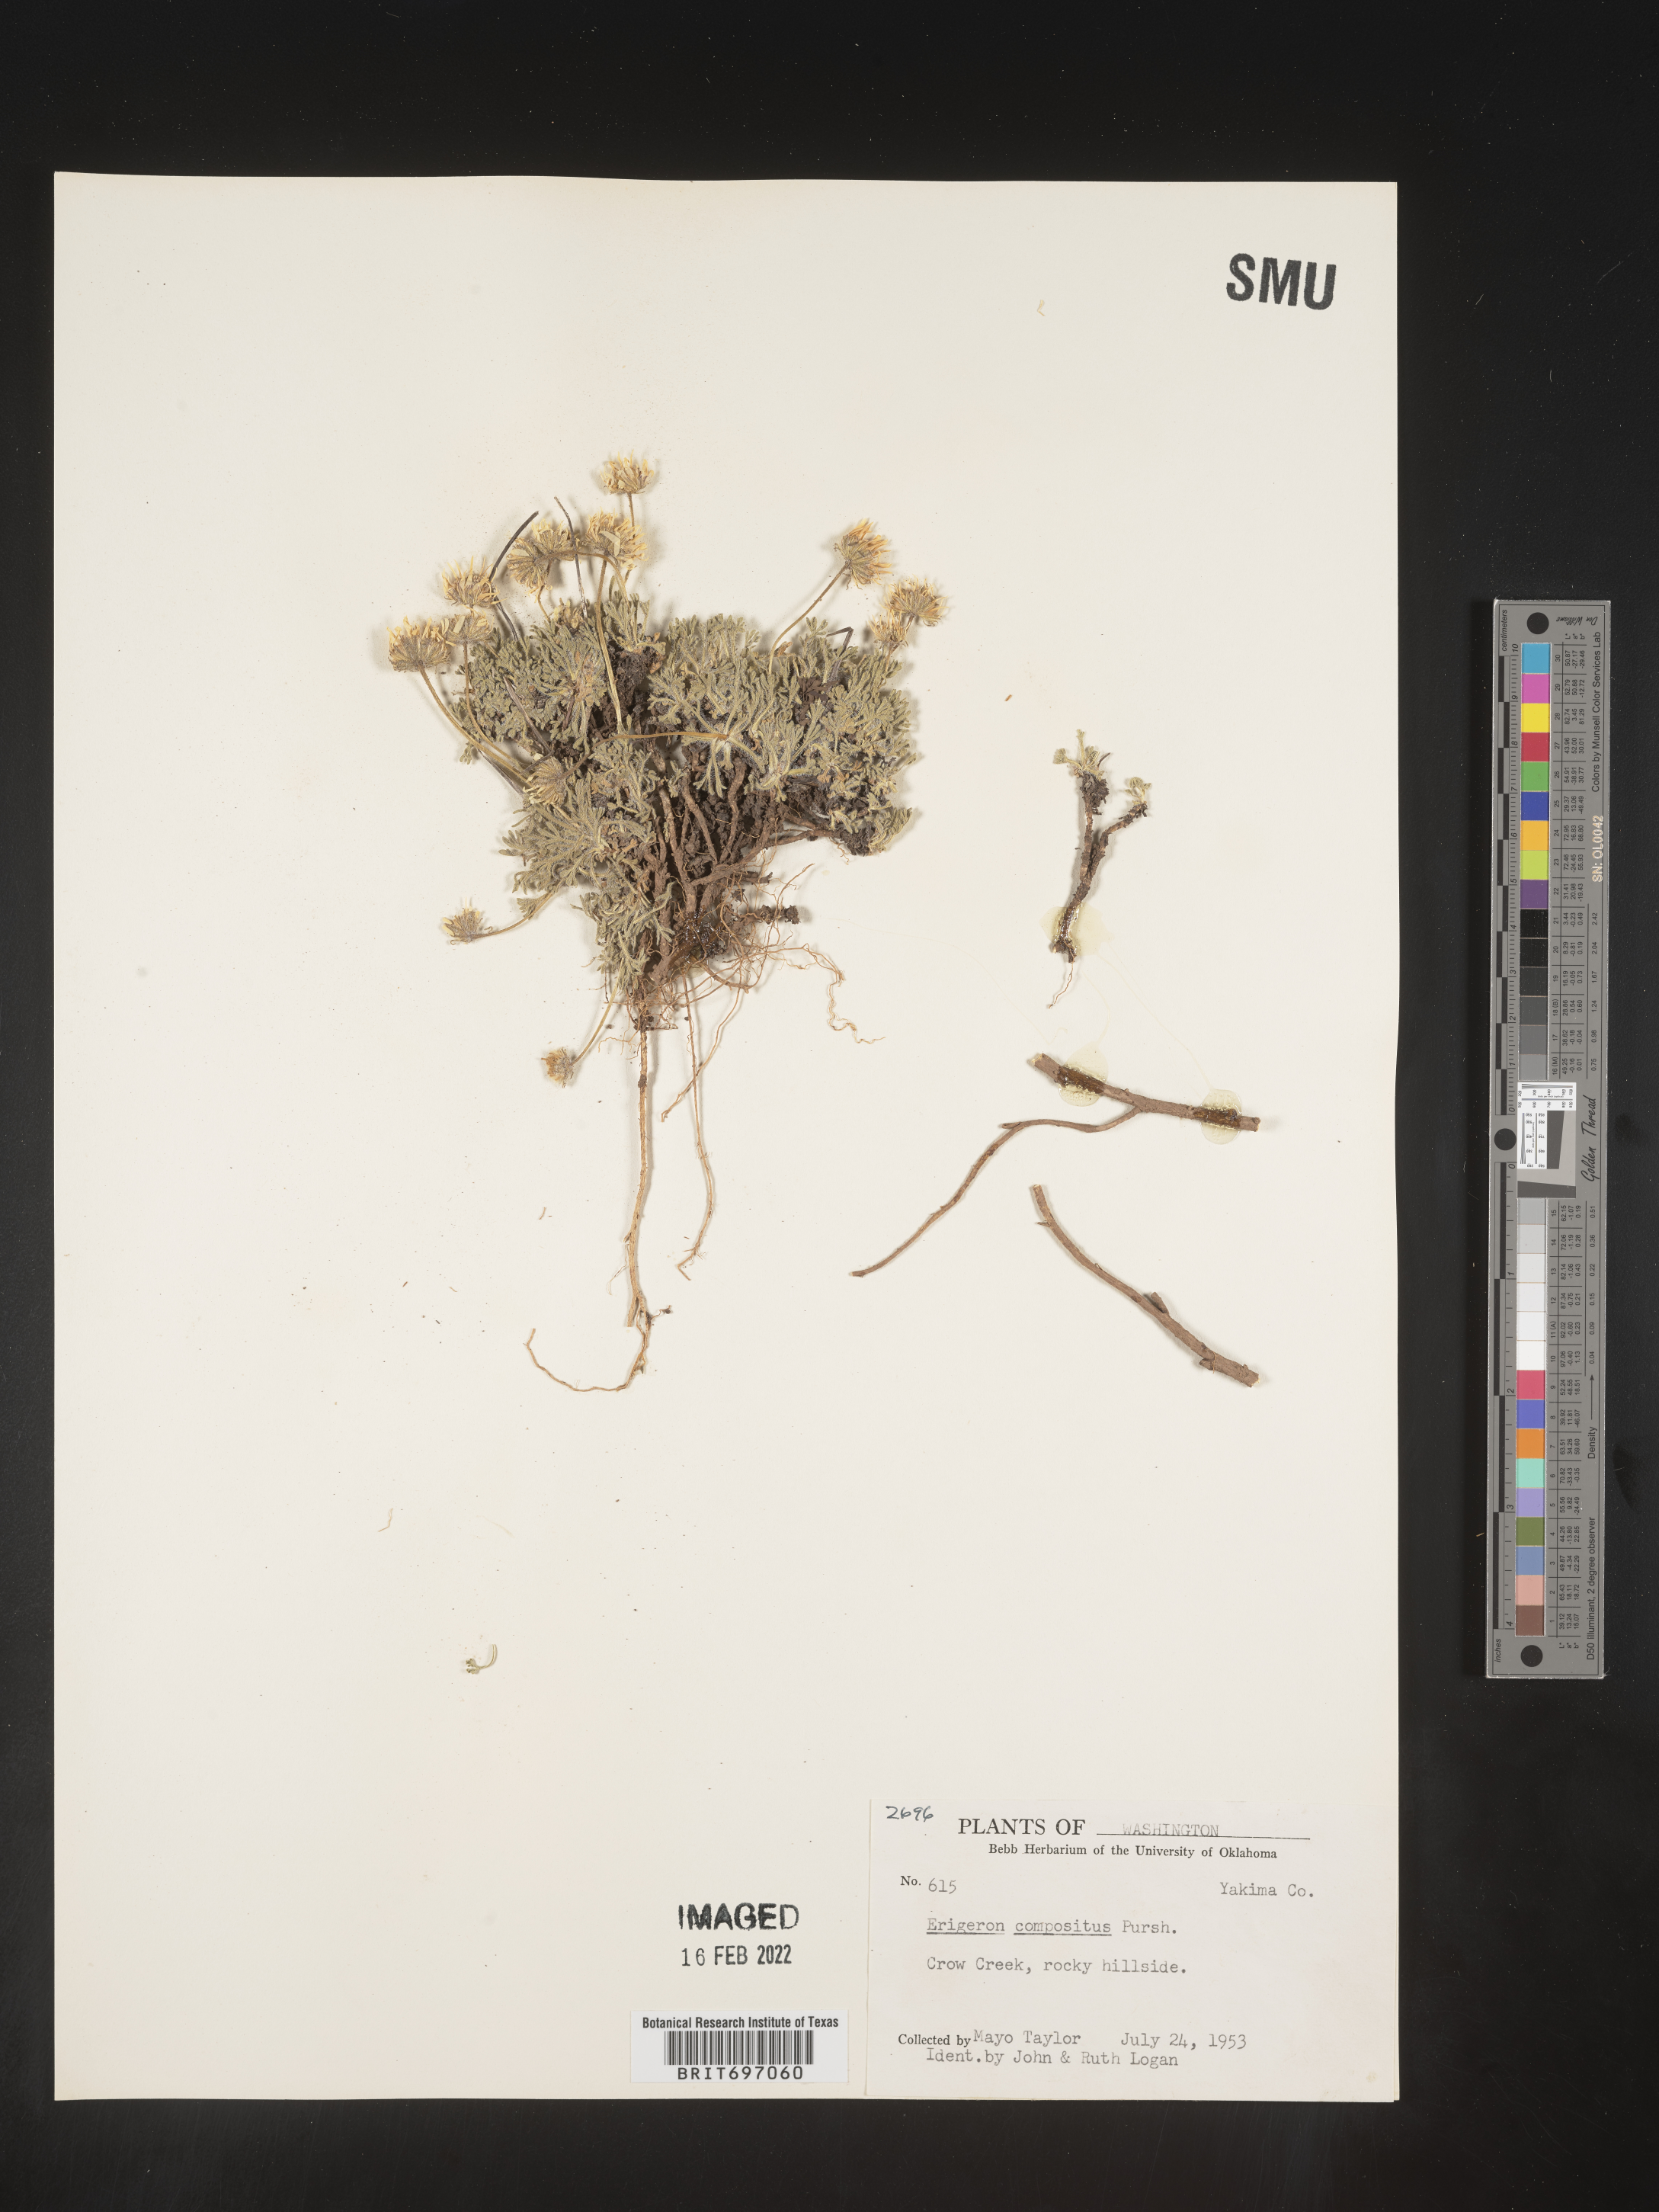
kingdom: Plantae
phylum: Tracheophyta
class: Magnoliopsida
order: Asterales
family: Asteraceae
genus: Erigeron
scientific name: Erigeron compositus
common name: Dwarf mountain fleabane
